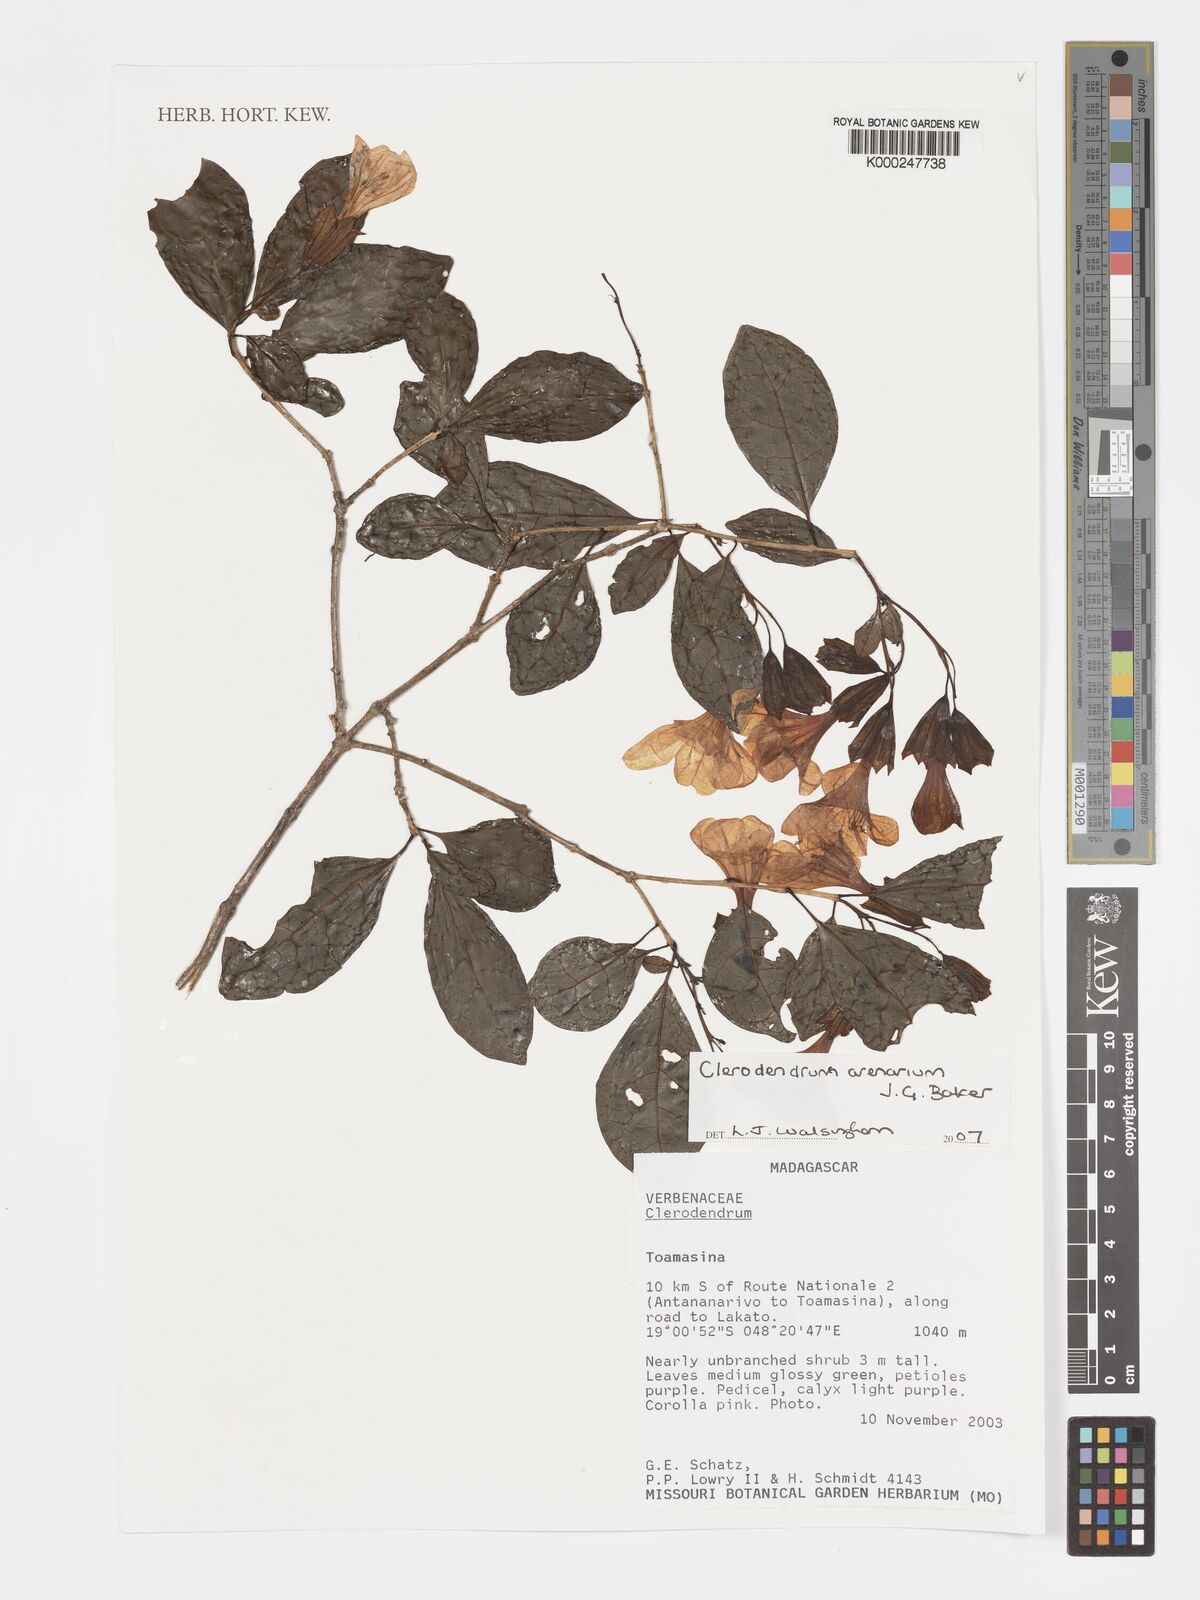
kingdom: Plantae
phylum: Tracheophyta
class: Magnoliopsida
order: Lamiales
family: Lamiaceae
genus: Clerodendrum
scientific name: Clerodendrum arenarium
